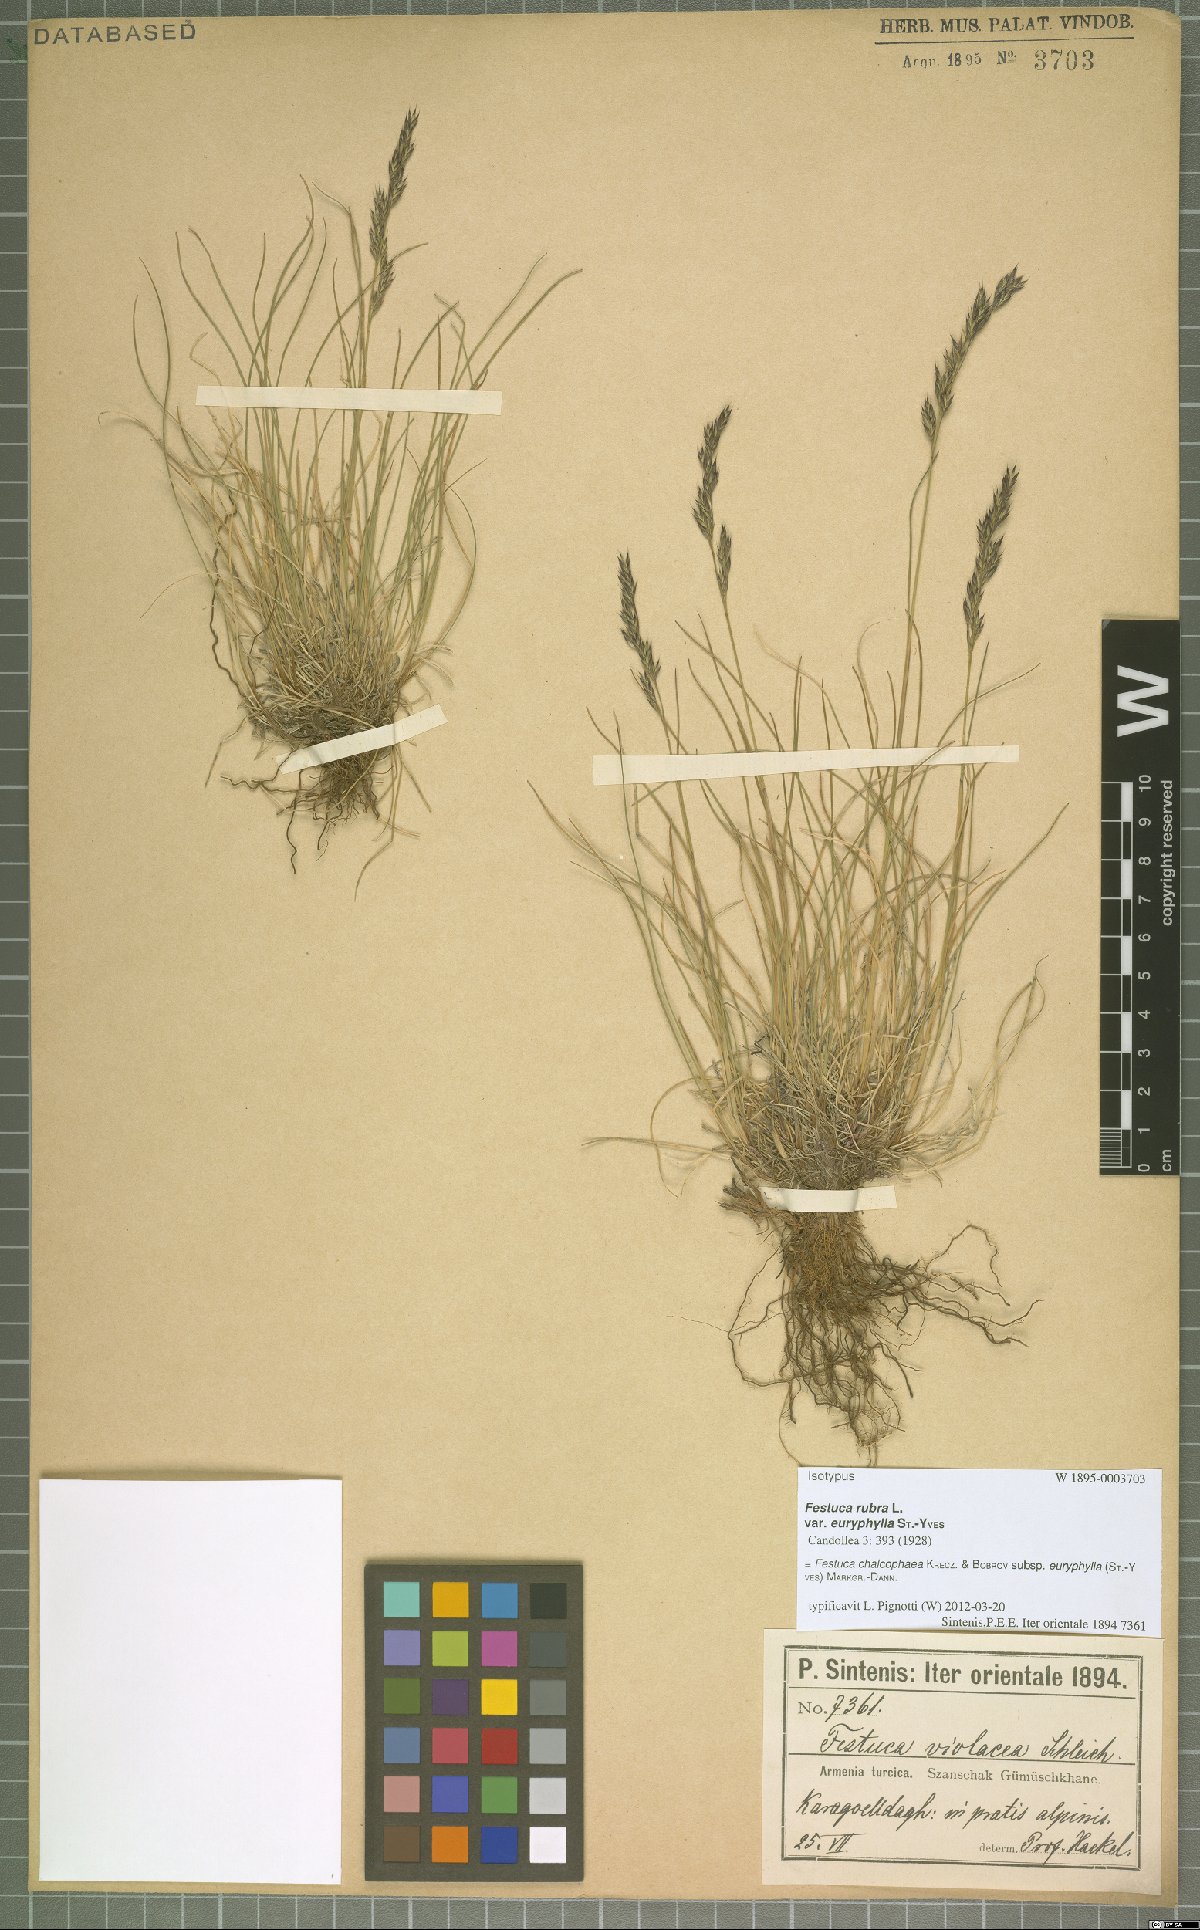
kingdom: Plantae
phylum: Tracheophyta
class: Liliopsida
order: Poales
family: Poaceae
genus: Festuca
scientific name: Festuca chalcophaea
